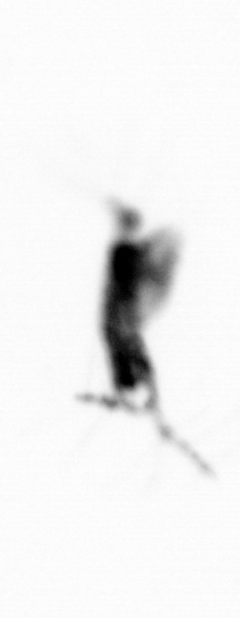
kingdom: Animalia
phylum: Arthropoda
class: Copepoda
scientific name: Copepoda
